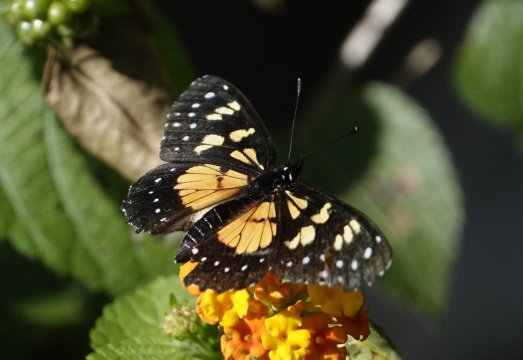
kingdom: Animalia
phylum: Arthropoda
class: Insecta
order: Lepidoptera
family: Nymphalidae
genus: Chlosyne
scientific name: Chlosyne narva
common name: Narva Checkerspot
